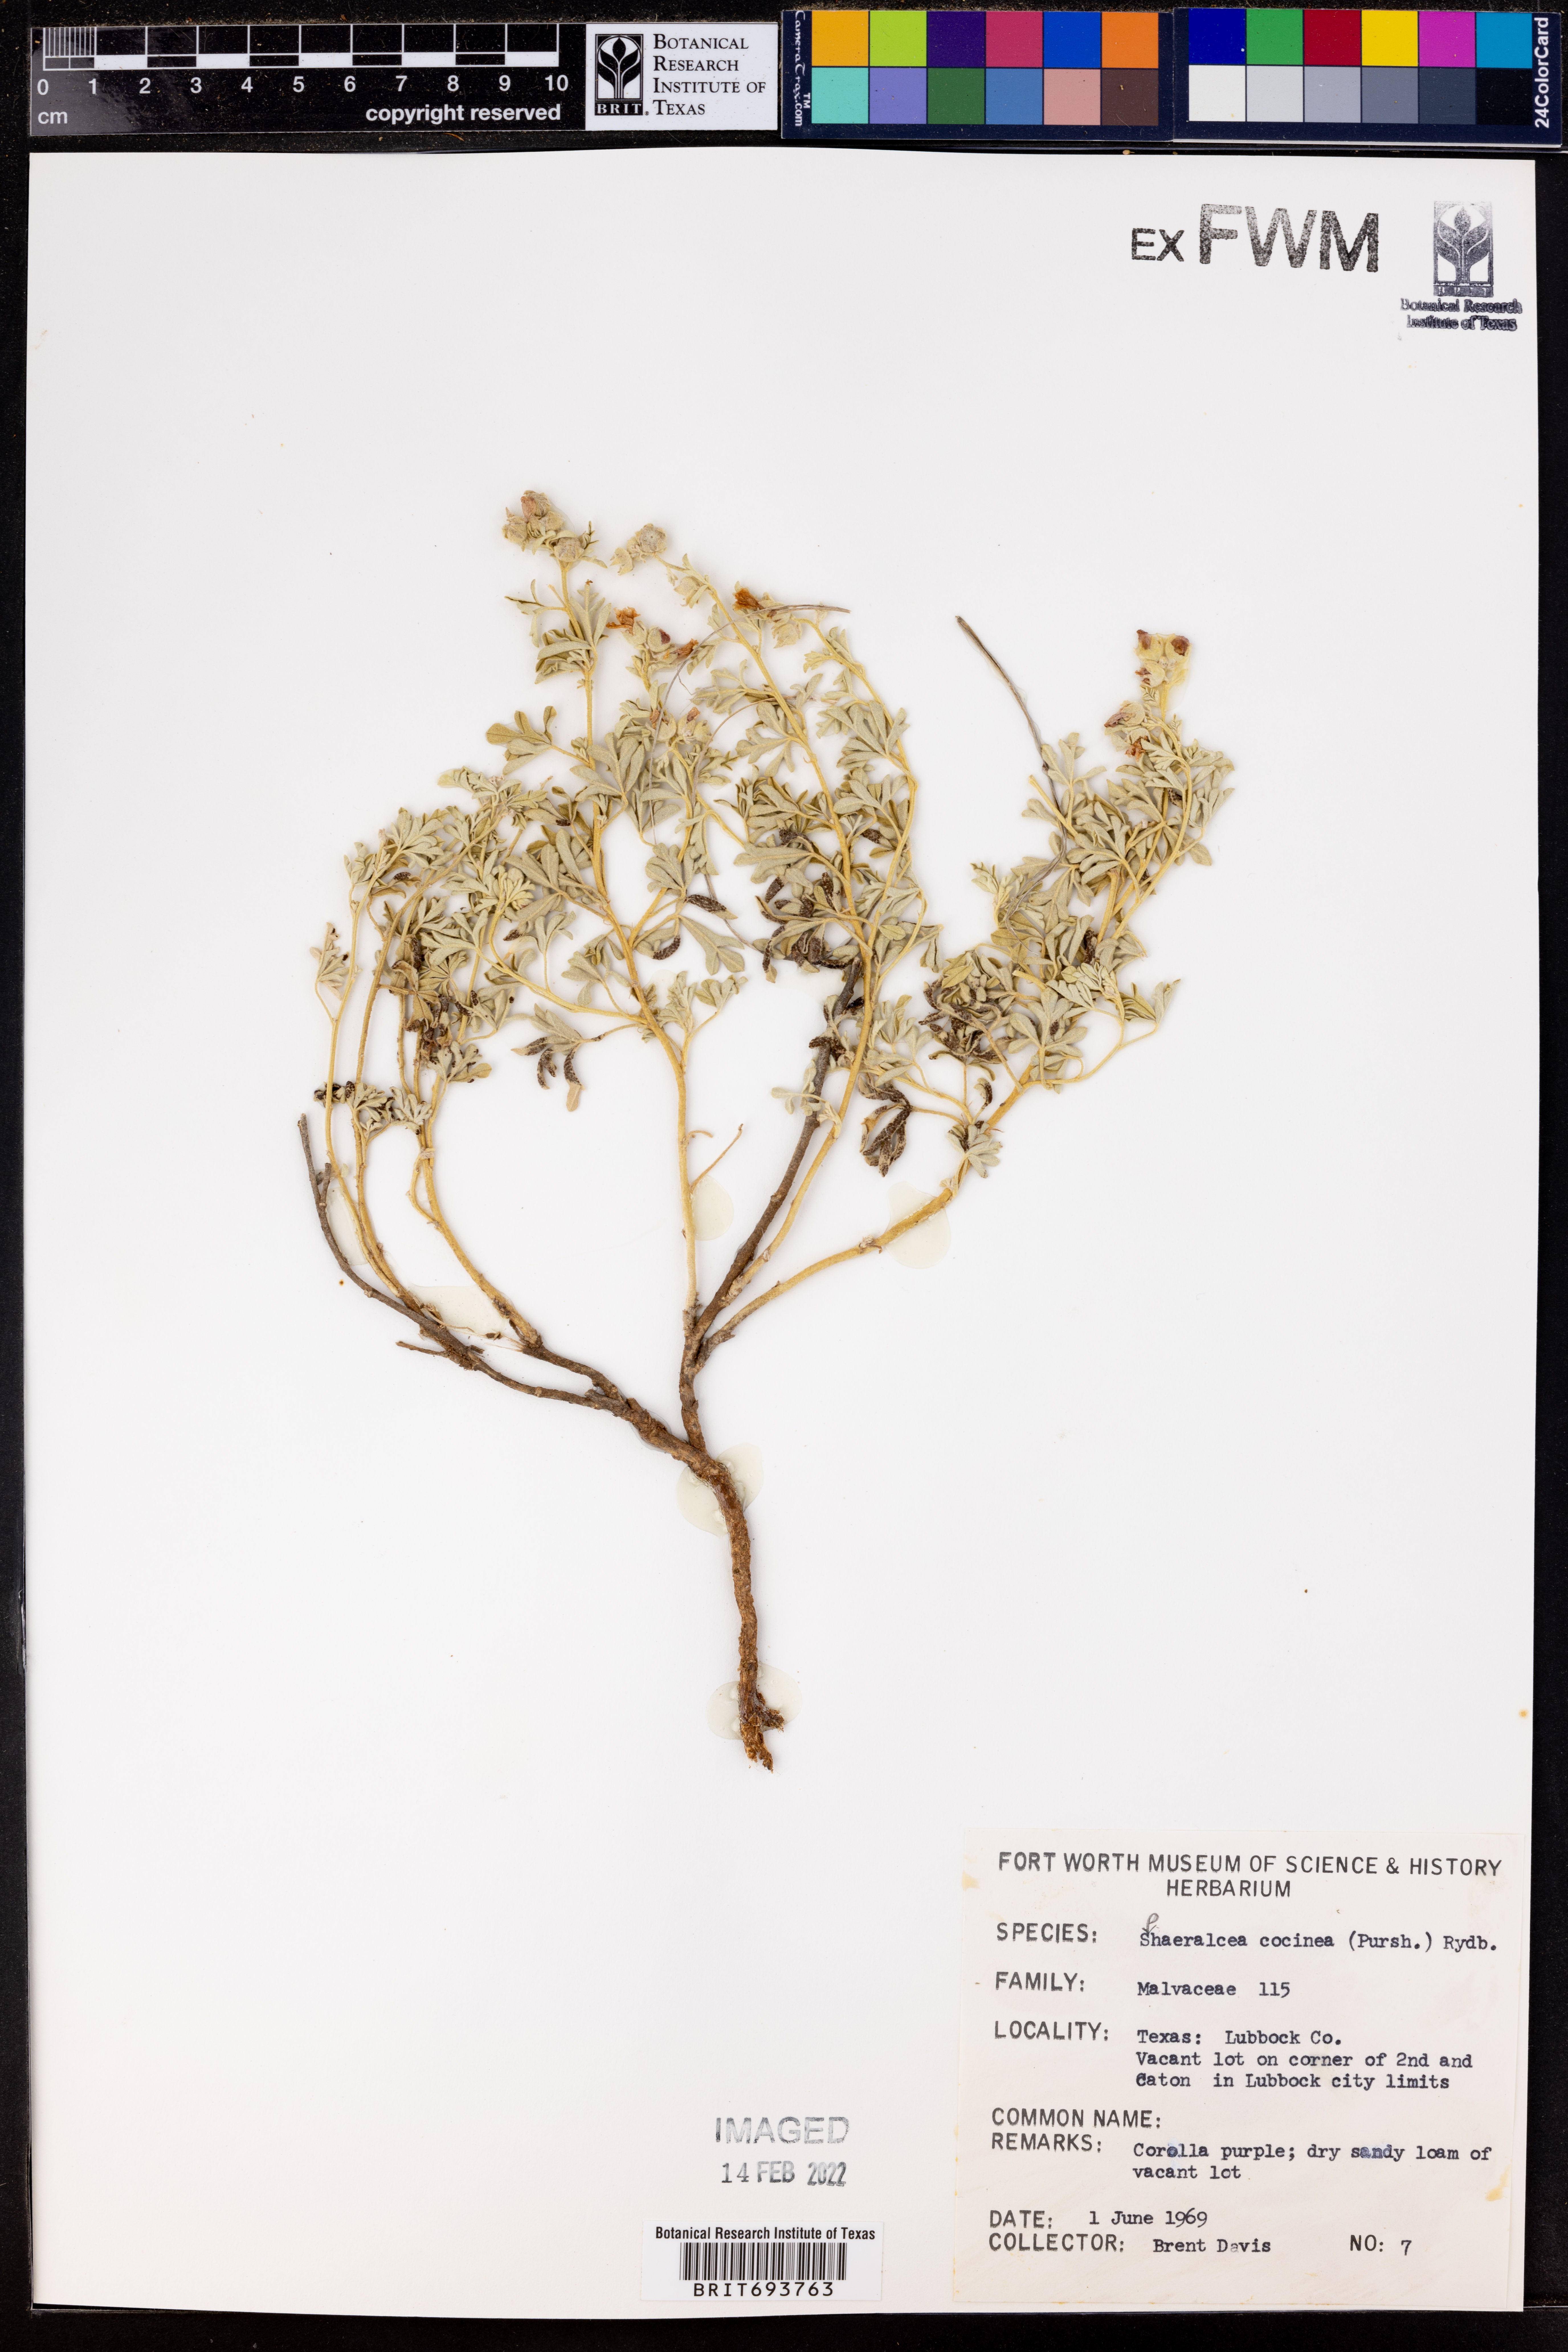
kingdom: Plantae
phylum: Tracheophyta
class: Magnoliopsida
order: Malvales
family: Malvaceae
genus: Sphaeralcea
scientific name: Sphaeralcea coccinea
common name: Moss-rose
